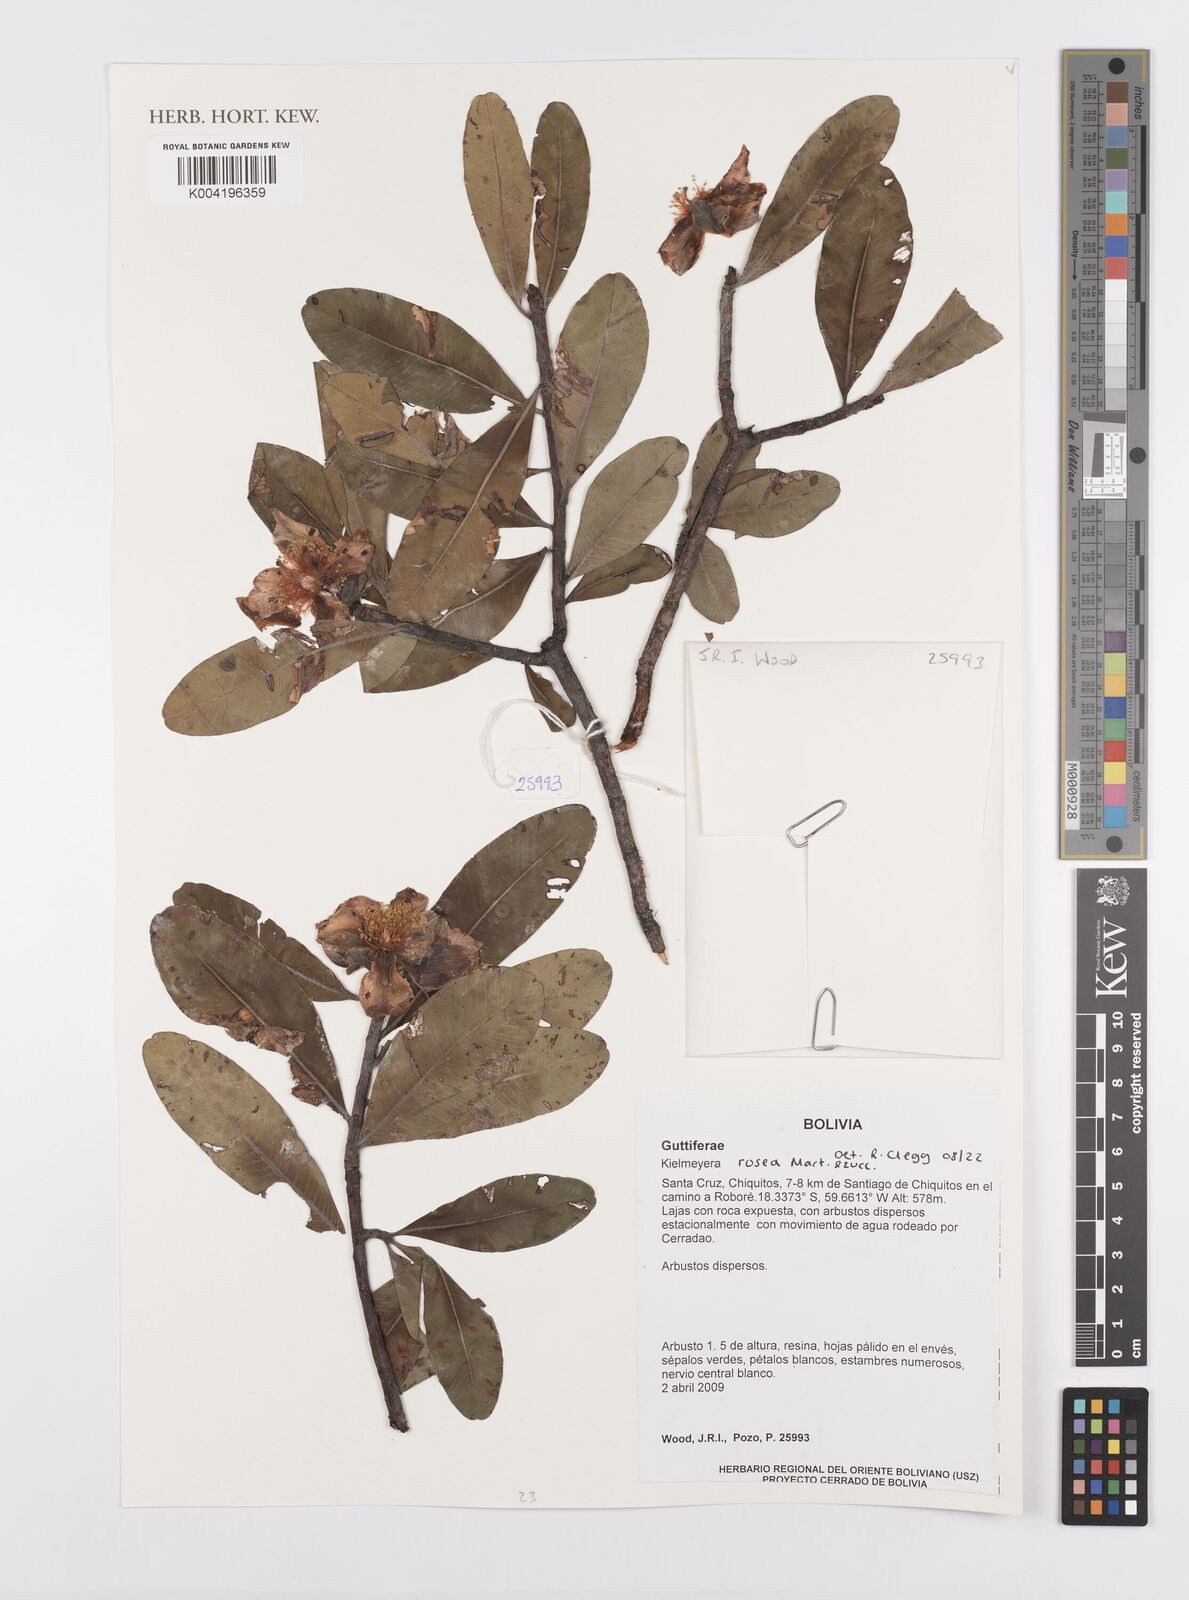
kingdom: Plantae
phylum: Tracheophyta
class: Magnoliopsida
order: Malpighiales
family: Calophyllaceae
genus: Kielmeyera
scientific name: Kielmeyera rosea
